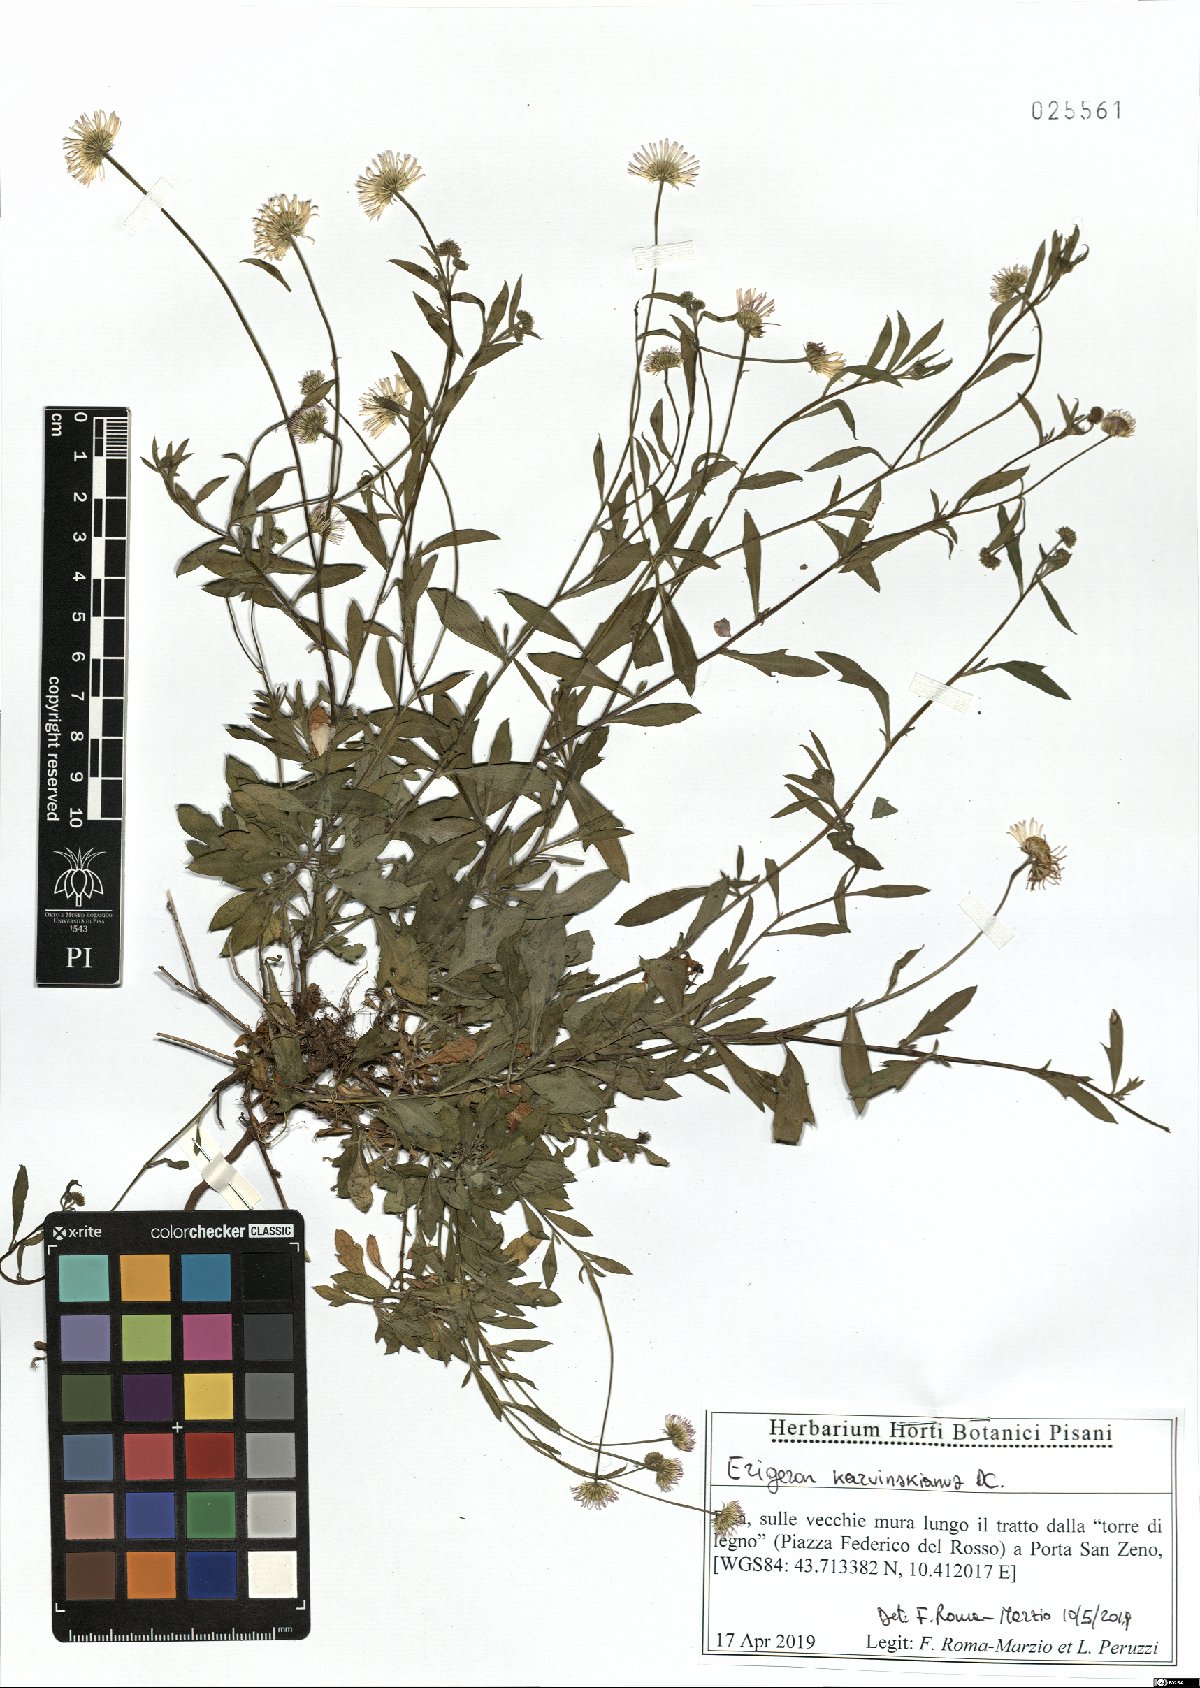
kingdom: Plantae
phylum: Tracheophyta
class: Magnoliopsida
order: Asterales
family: Asteraceae
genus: Erigeron
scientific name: Erigeron karvinskianus
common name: Mexican fleabane
